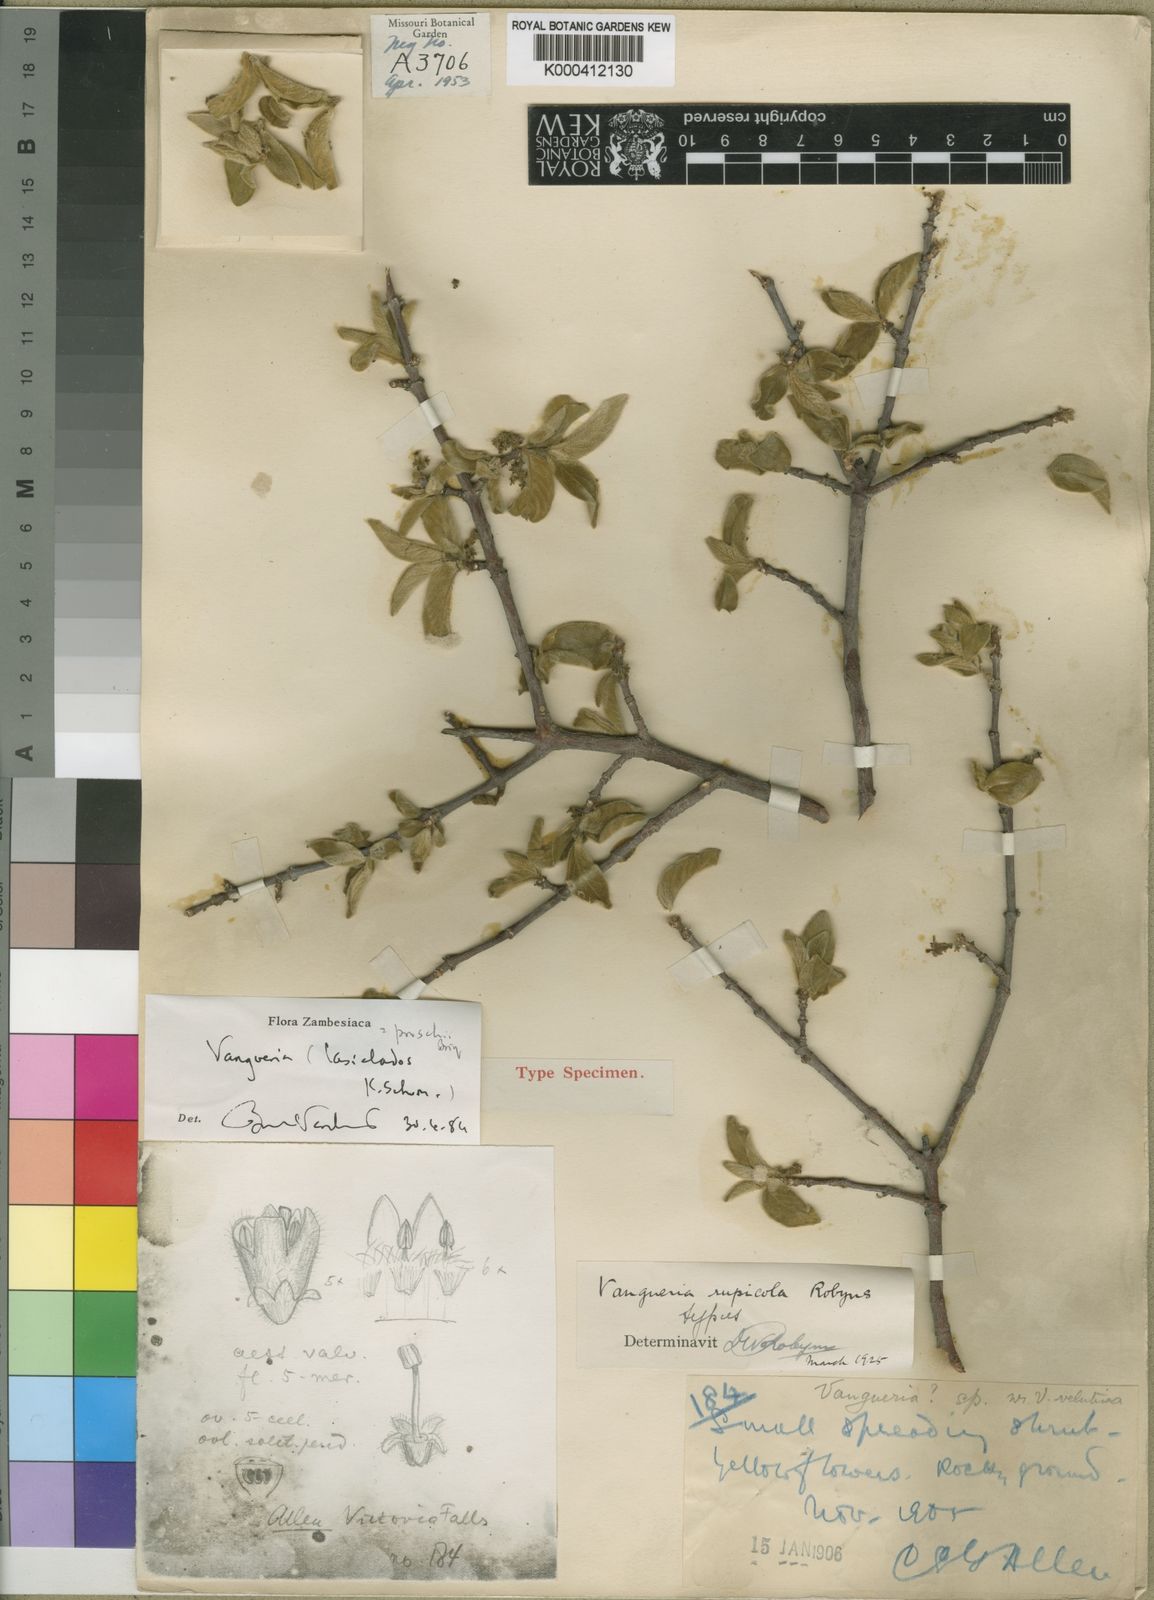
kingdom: Plantae
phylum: Tracheophyta
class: Magnoliopsida
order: Gentianales
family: Rubiaceae
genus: Vangueria
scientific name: Vangueria proschii
